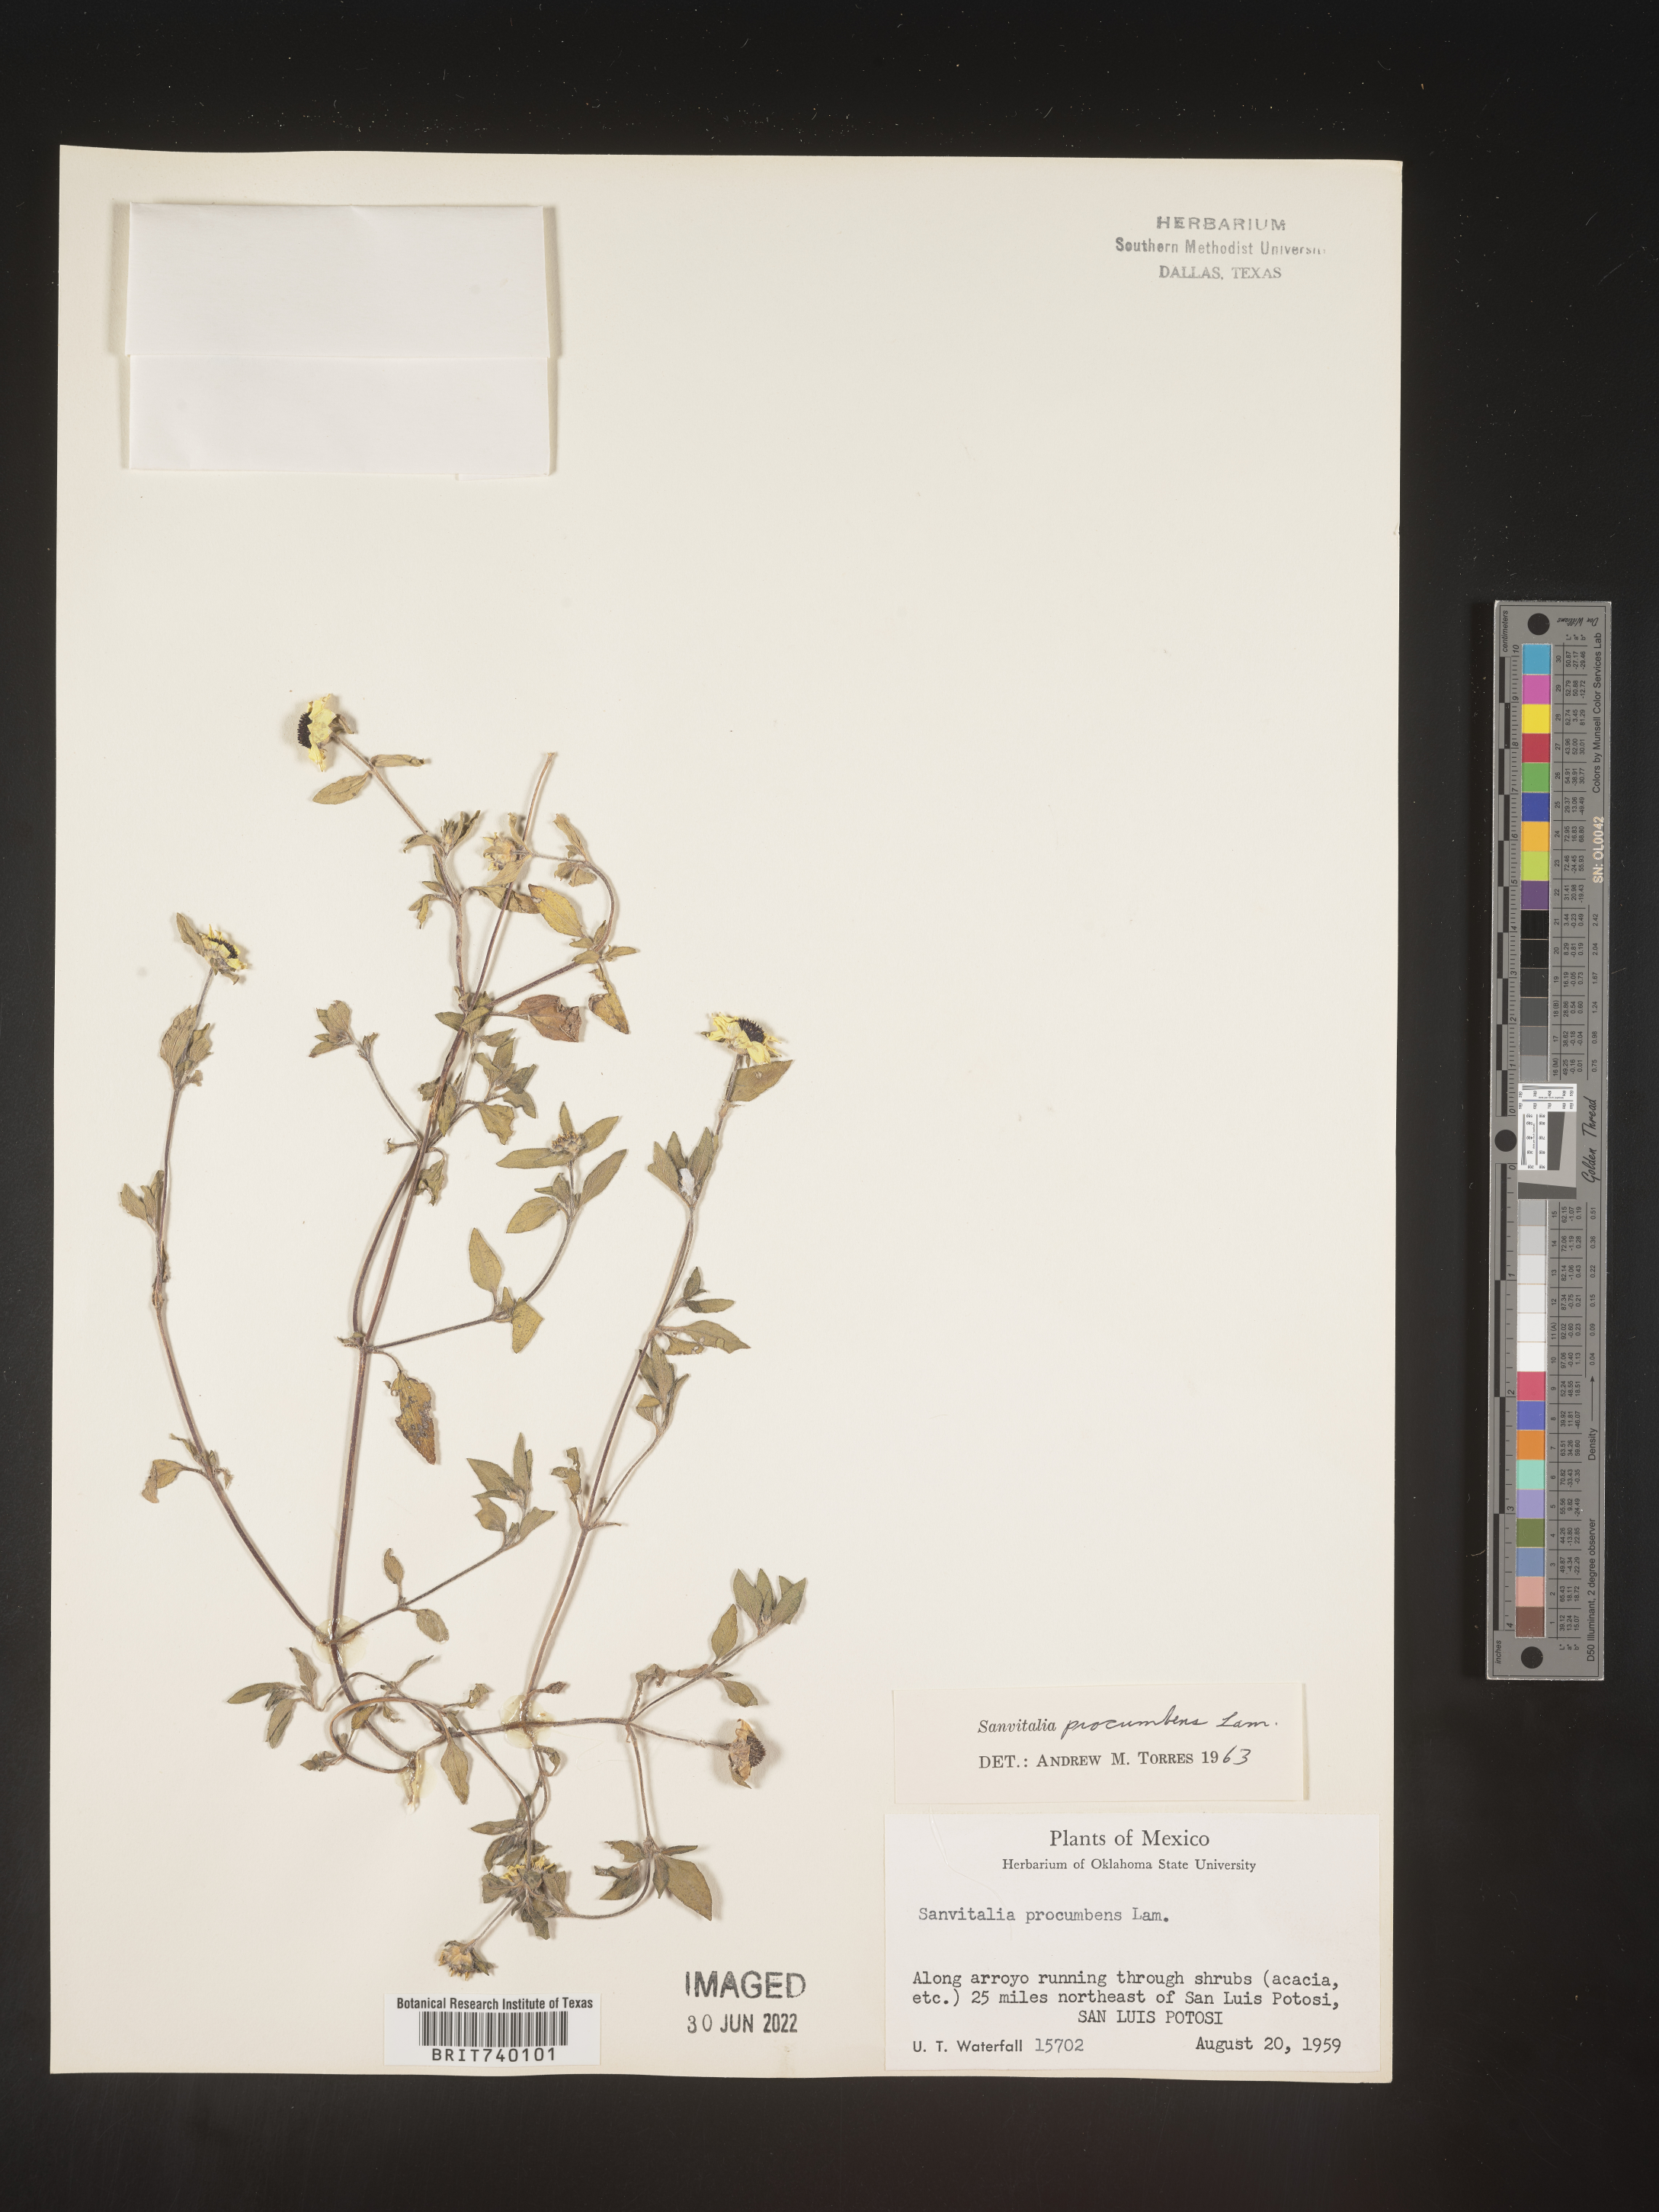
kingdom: Plantae
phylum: Tracheophyta
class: Magnoliopsida
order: Asterales
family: Asteraceae
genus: Sanvitalia
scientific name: Sanvitalia
